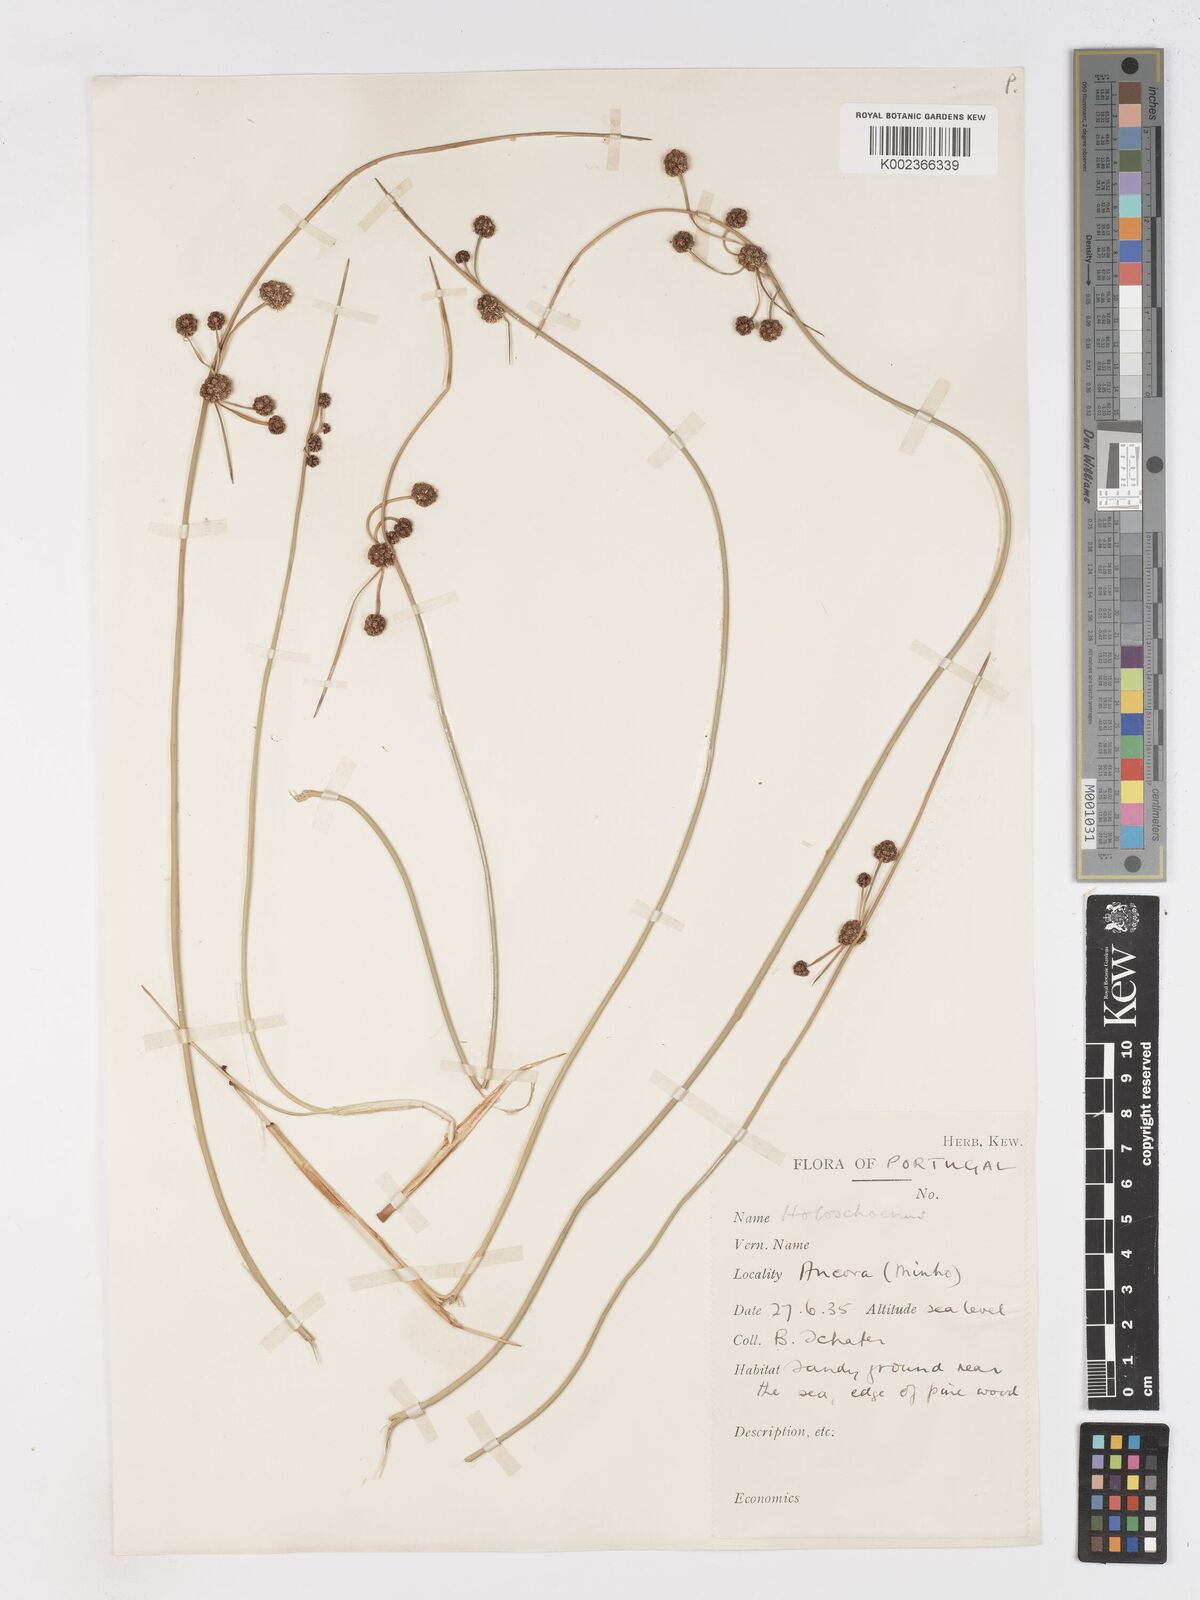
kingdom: Plantae
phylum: Tracheophyta
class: Liliopsida
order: Poales
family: Cyperaceae
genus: Scirpoides
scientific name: Scirpoides holoschoenus
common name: Round-headed club-rush
